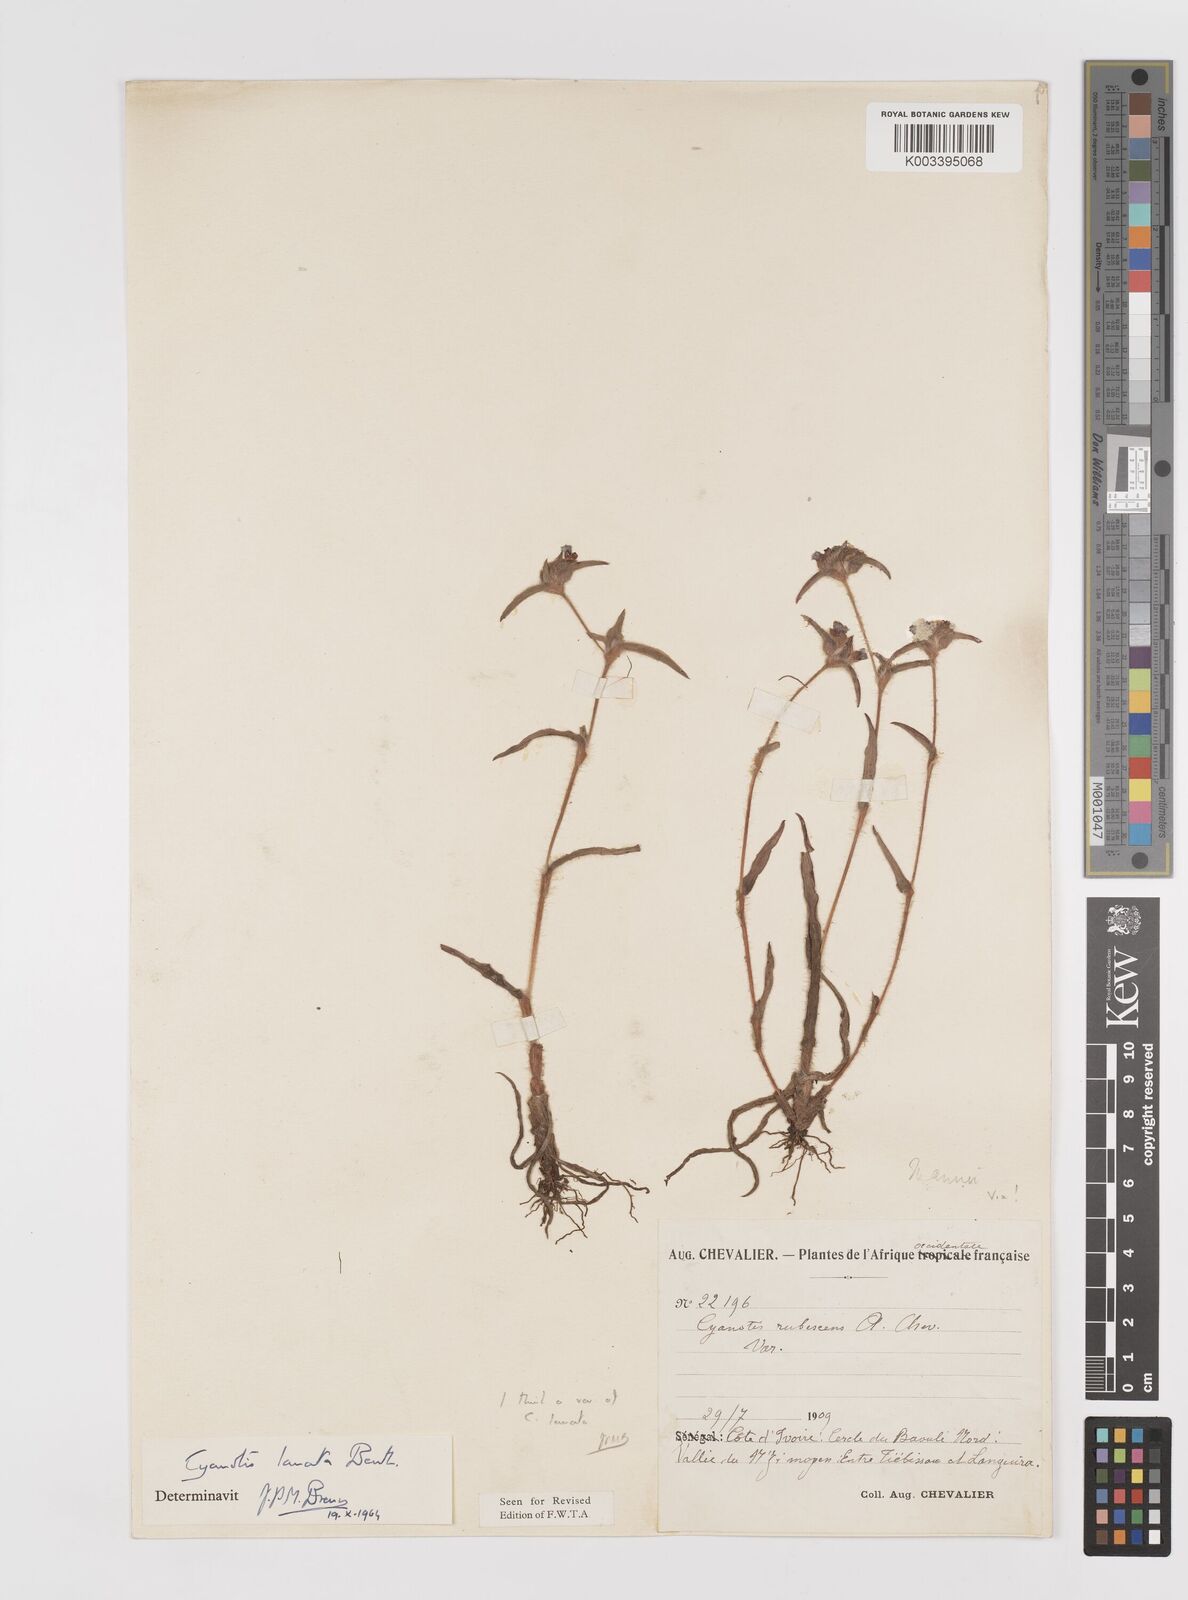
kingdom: Plantae
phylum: Tracheophyta
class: Liliopsida
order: Commelinales
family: Commelinaceae
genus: Cyanotis
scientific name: Cyanotis lanata
